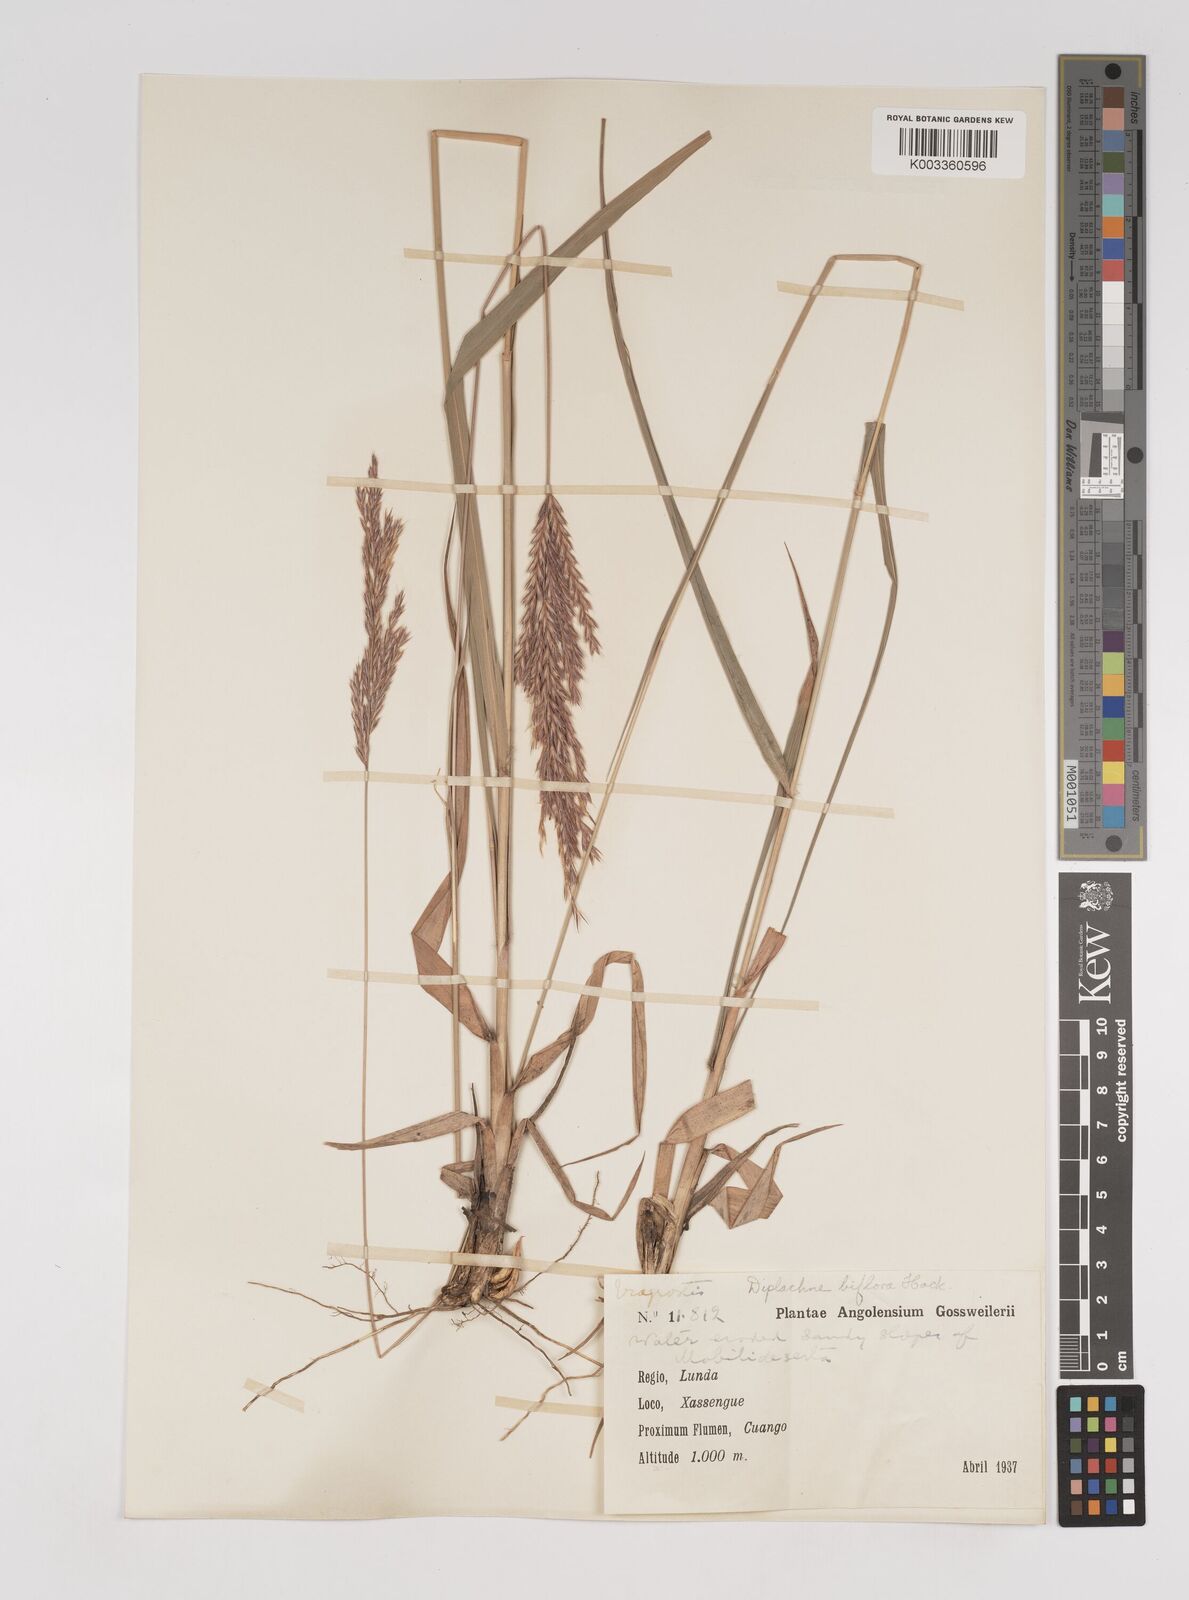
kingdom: Plantae
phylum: Tracheophyta
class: Liliopsida
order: Poales
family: Poaceae
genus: Bewsia
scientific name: Bewsia biflora
